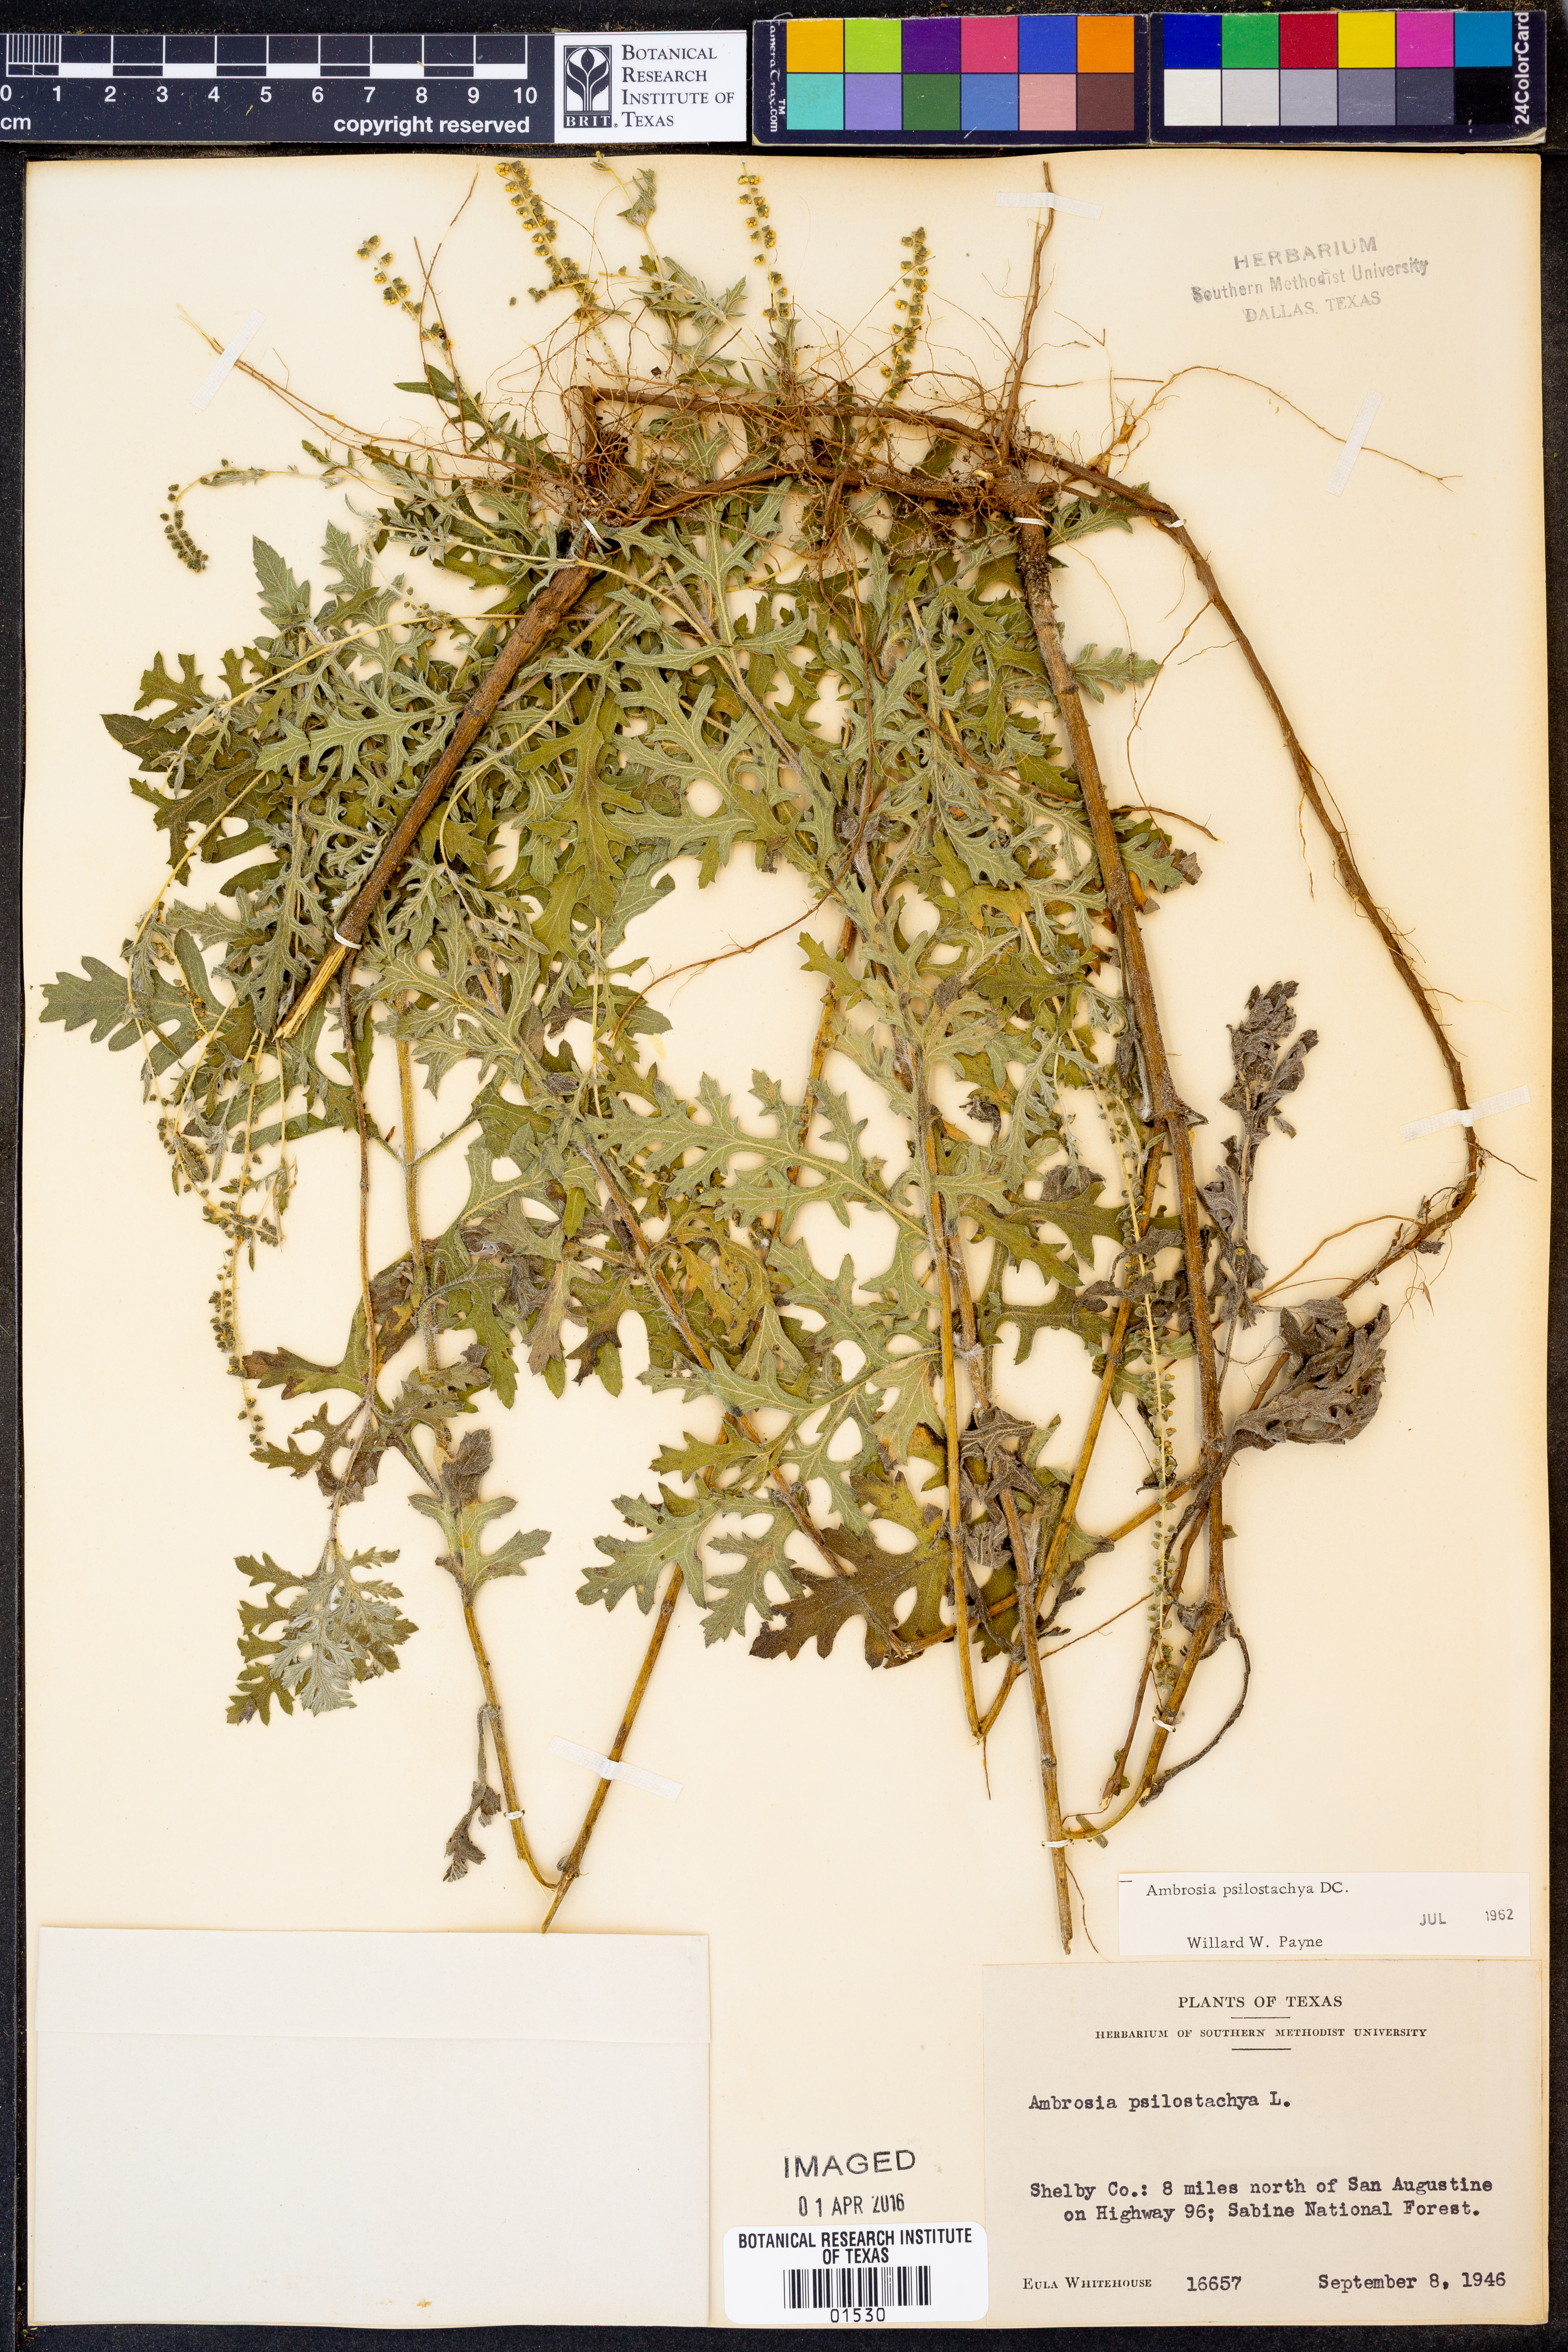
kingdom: Plantae
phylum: Tracheophyta
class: Magnoliopsida
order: Asterales
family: Asteraceae
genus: Ambrosia
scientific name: Ambrosia psilostachya
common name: Perennial ragweed
